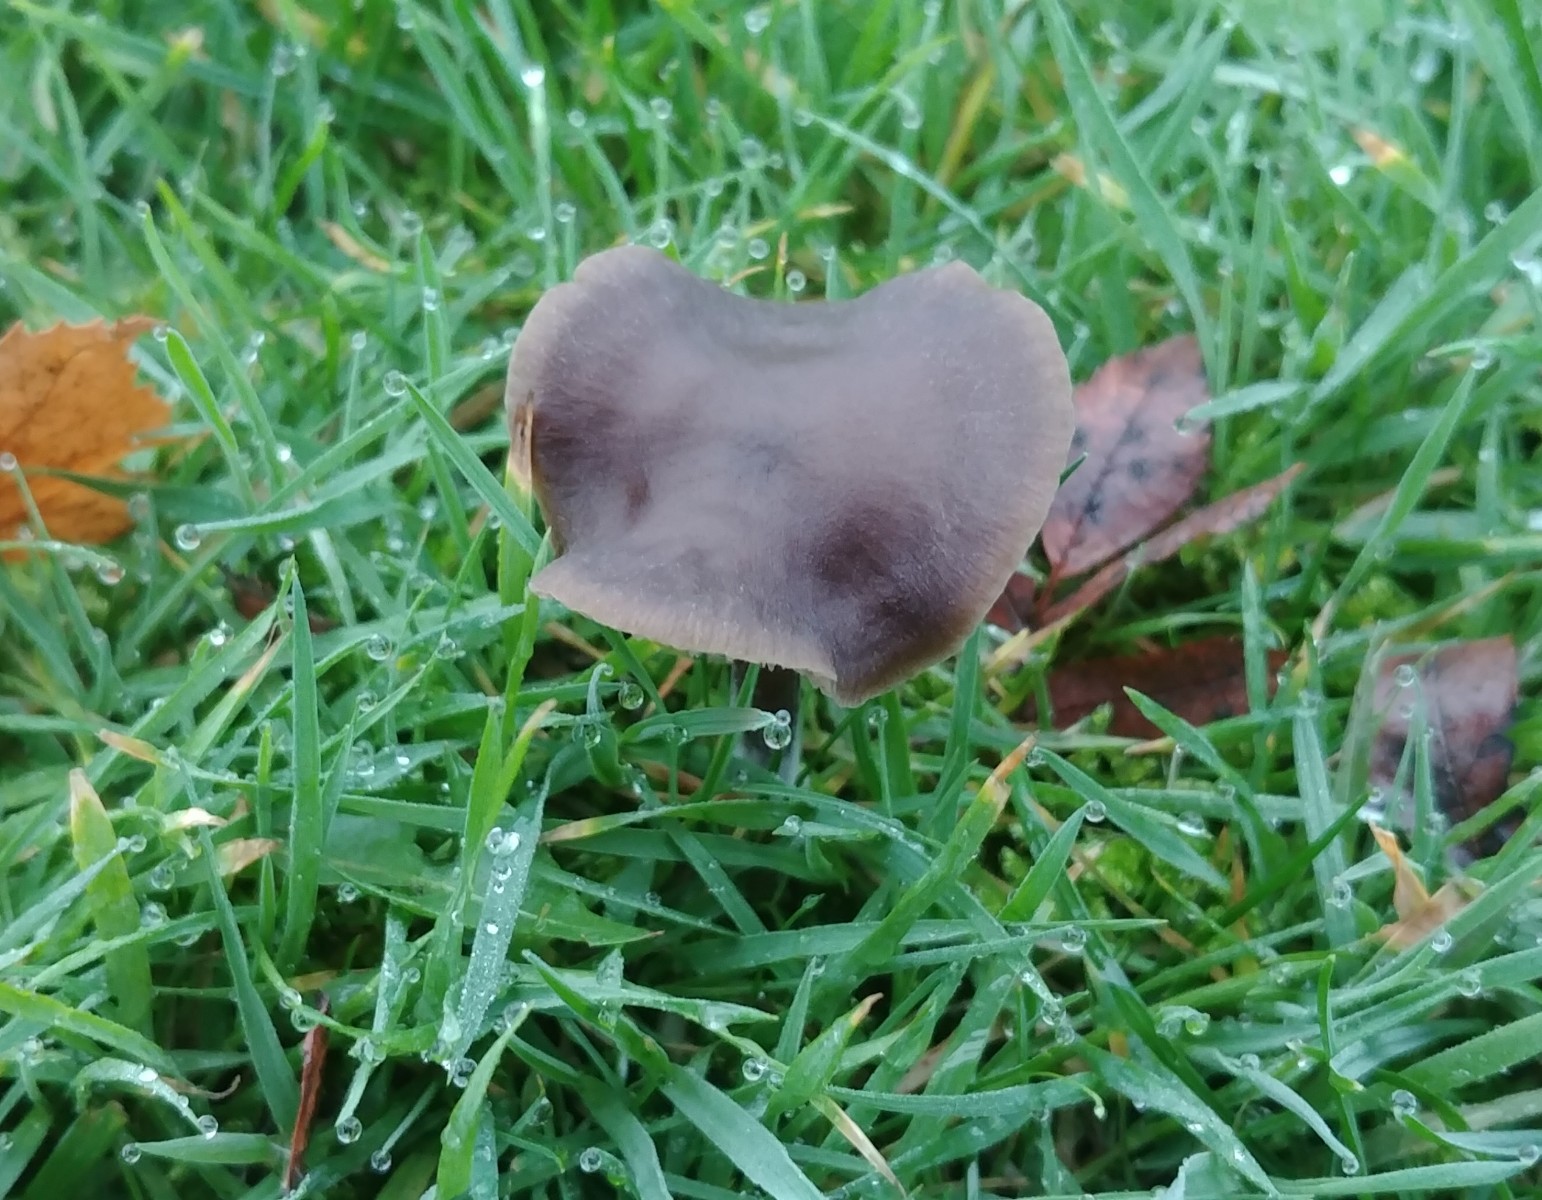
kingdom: Fungi
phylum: Basidiomycota
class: Agaricomycetes
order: Agaricales
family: Entolomataceae
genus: Entoloma
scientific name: Entoloma
